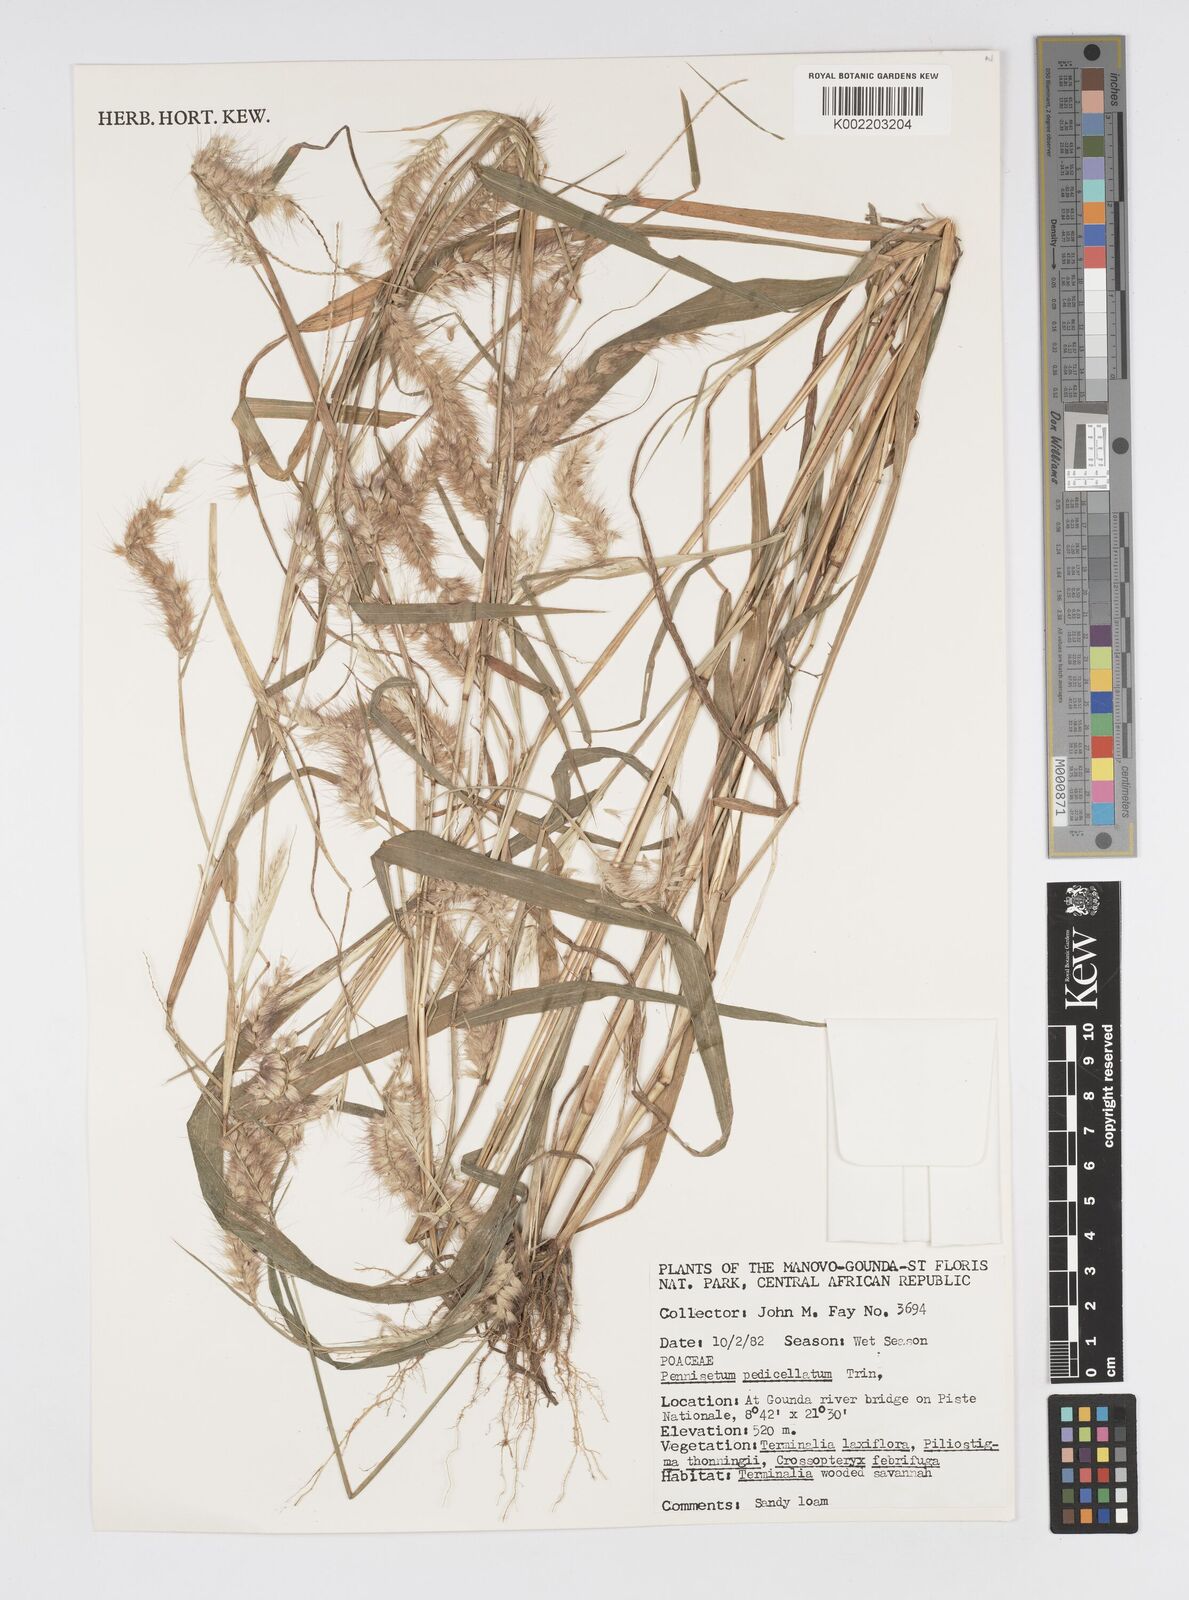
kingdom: Plantae
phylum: Tracheophyta
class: Liliopsida
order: Poales
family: Poaceae
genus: Cenchrus
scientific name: Cenchrus pedicellatus
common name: Hairy fountain grass
